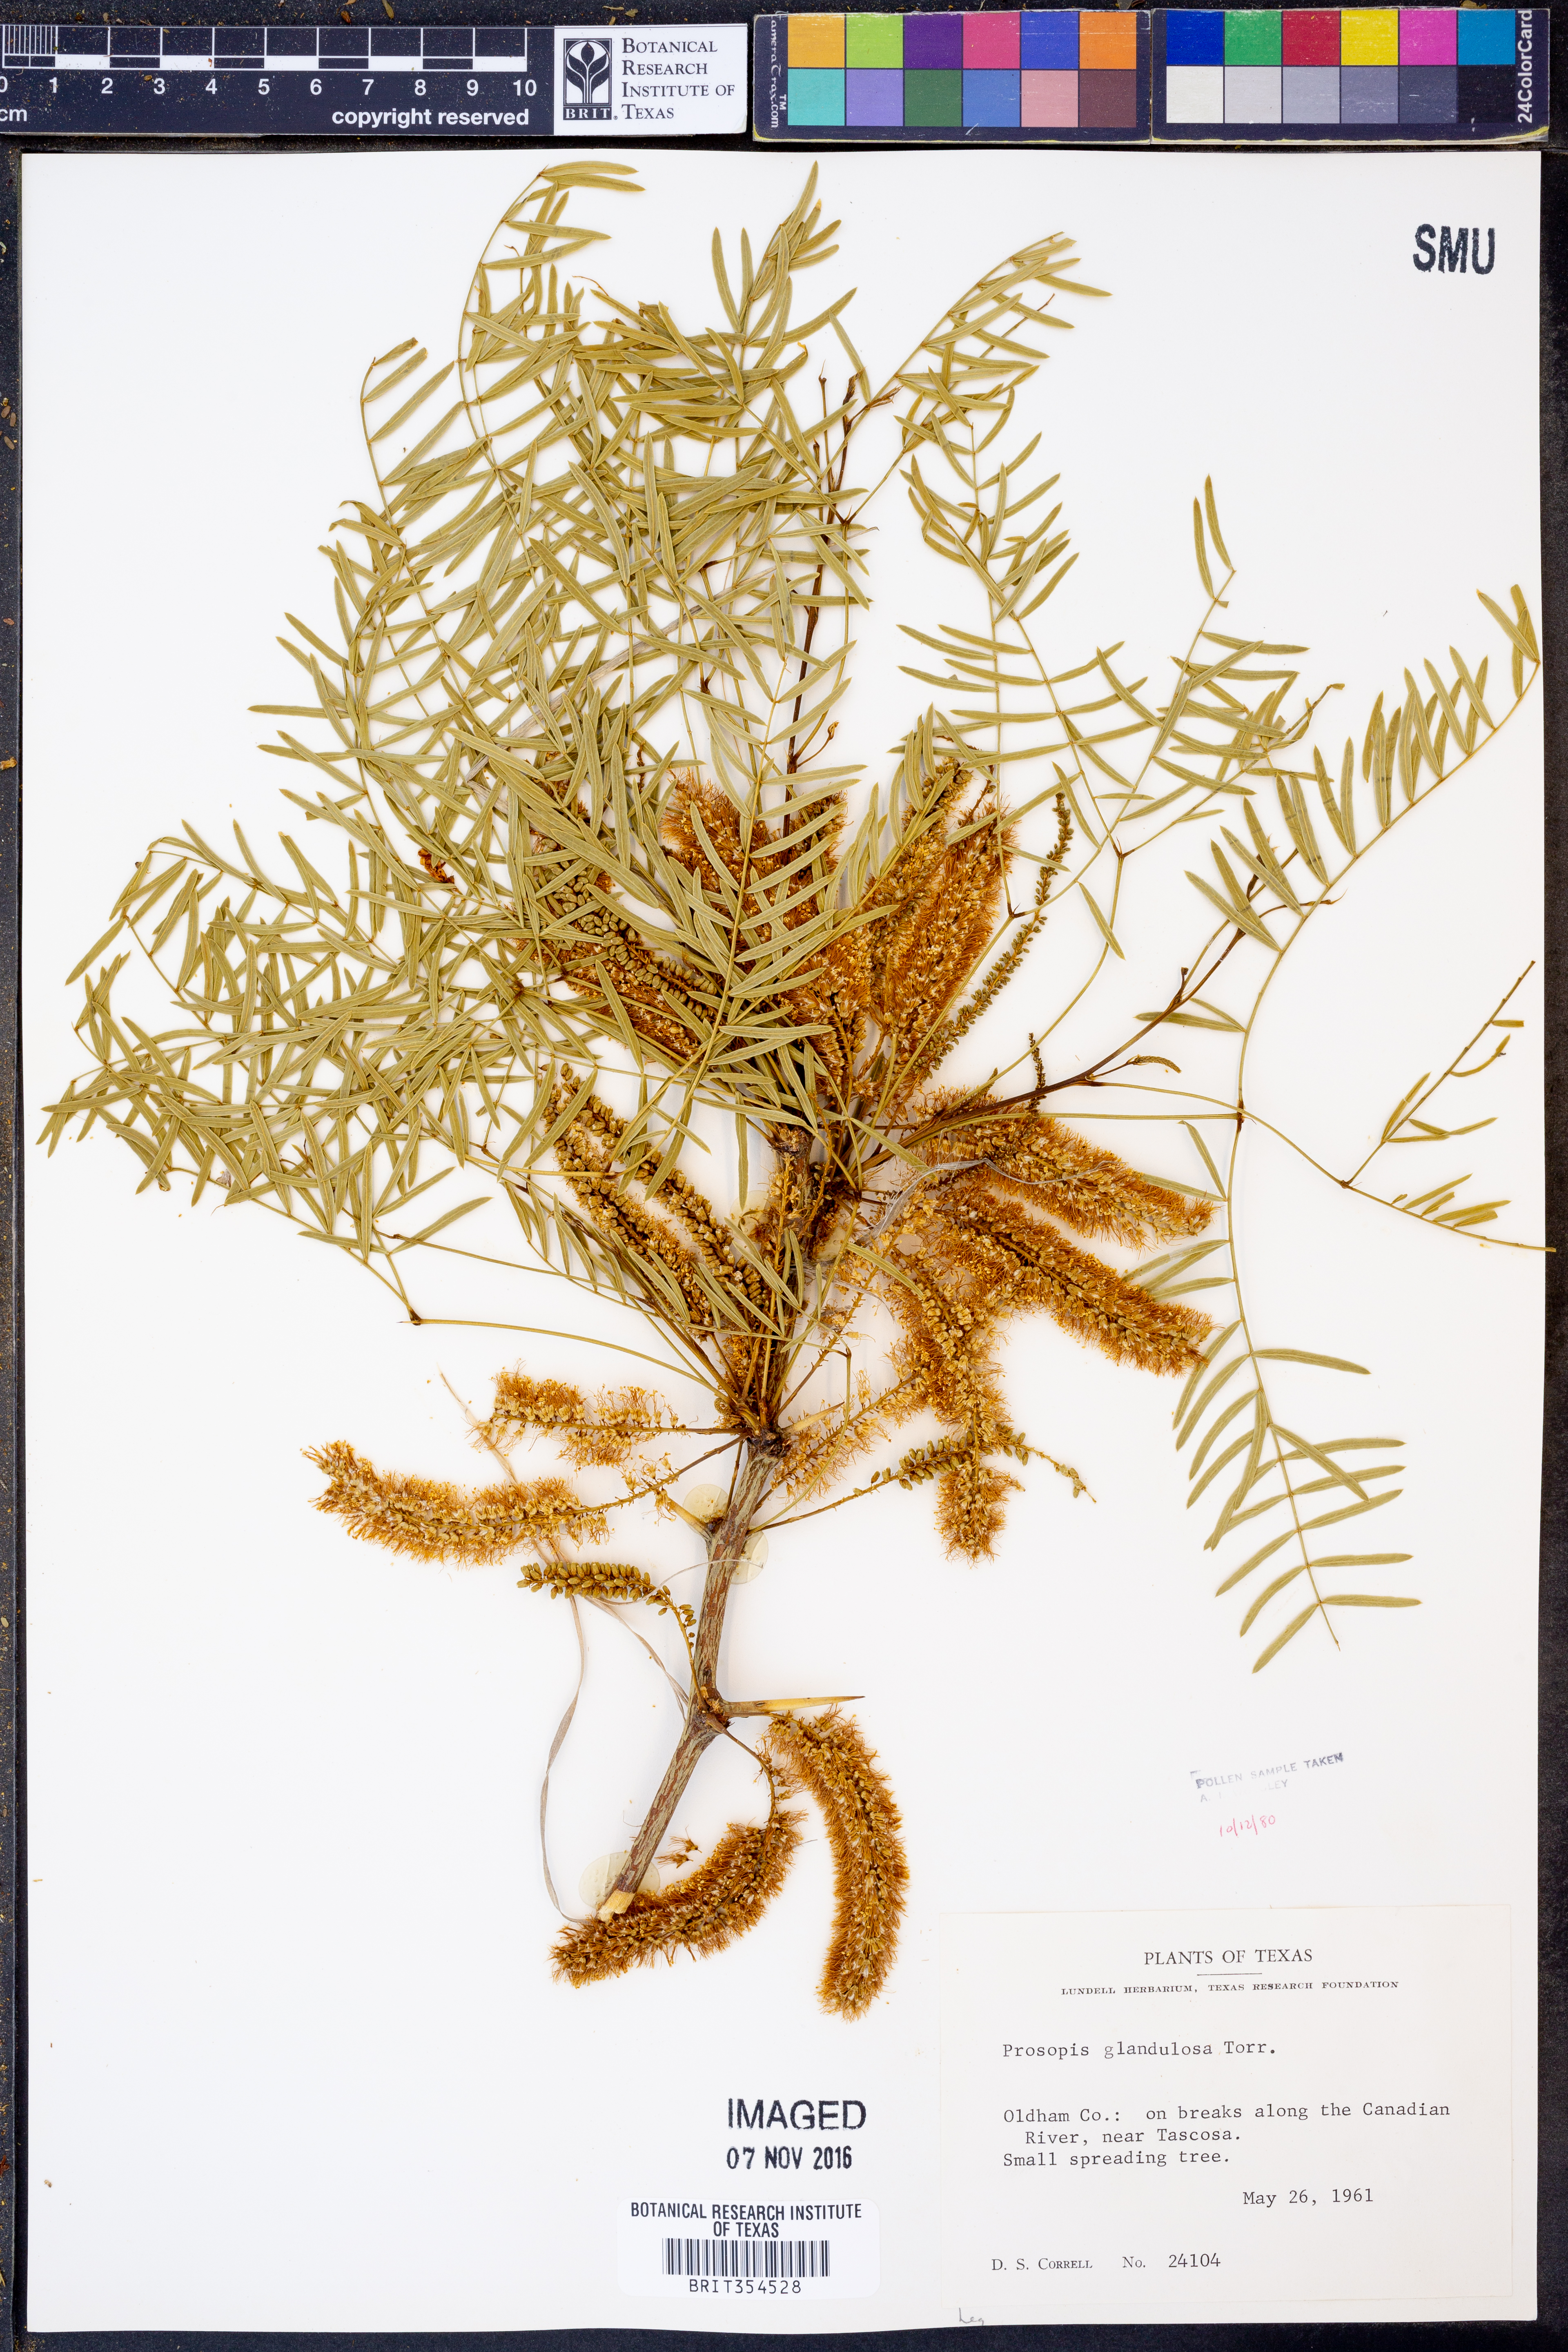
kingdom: Plantae
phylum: Tracheophyta
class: Magnoliopsida
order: Fabales
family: Fabaceae
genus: Prosopis
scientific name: Prosopis glandulosa
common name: Honey mesquite
